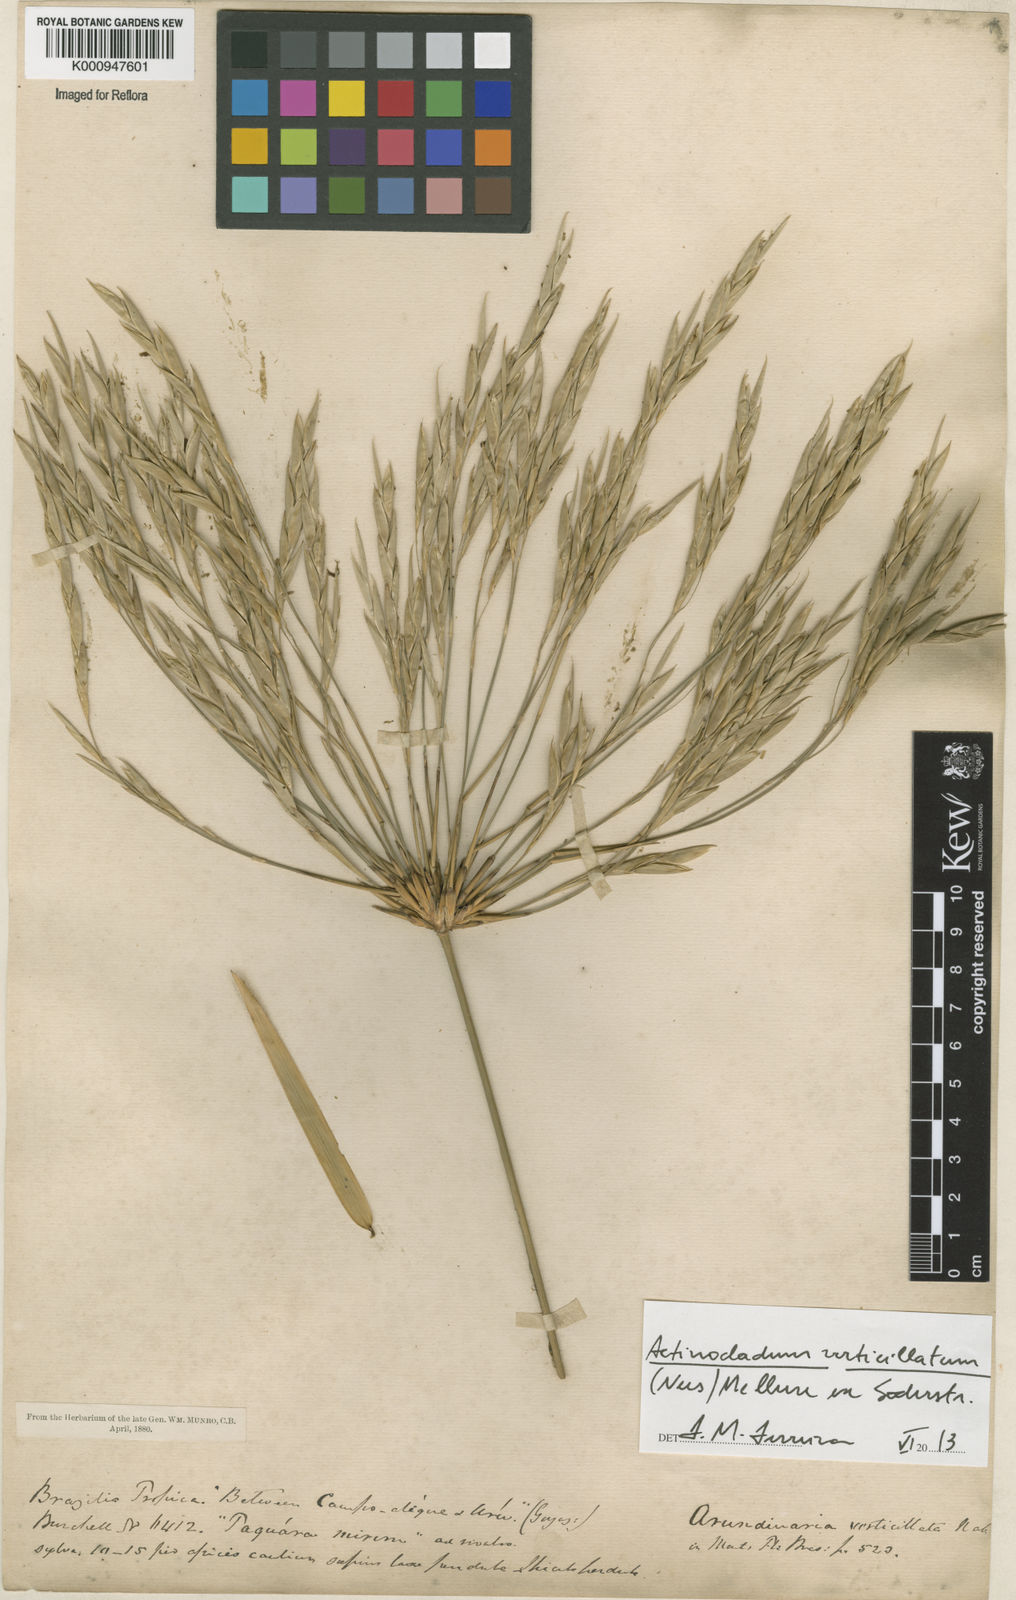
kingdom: Plantae
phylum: Tracheophyta
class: Liliopsida
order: Poales
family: Poaceae
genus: Actinocladum
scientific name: Actinocladum verticillatum
